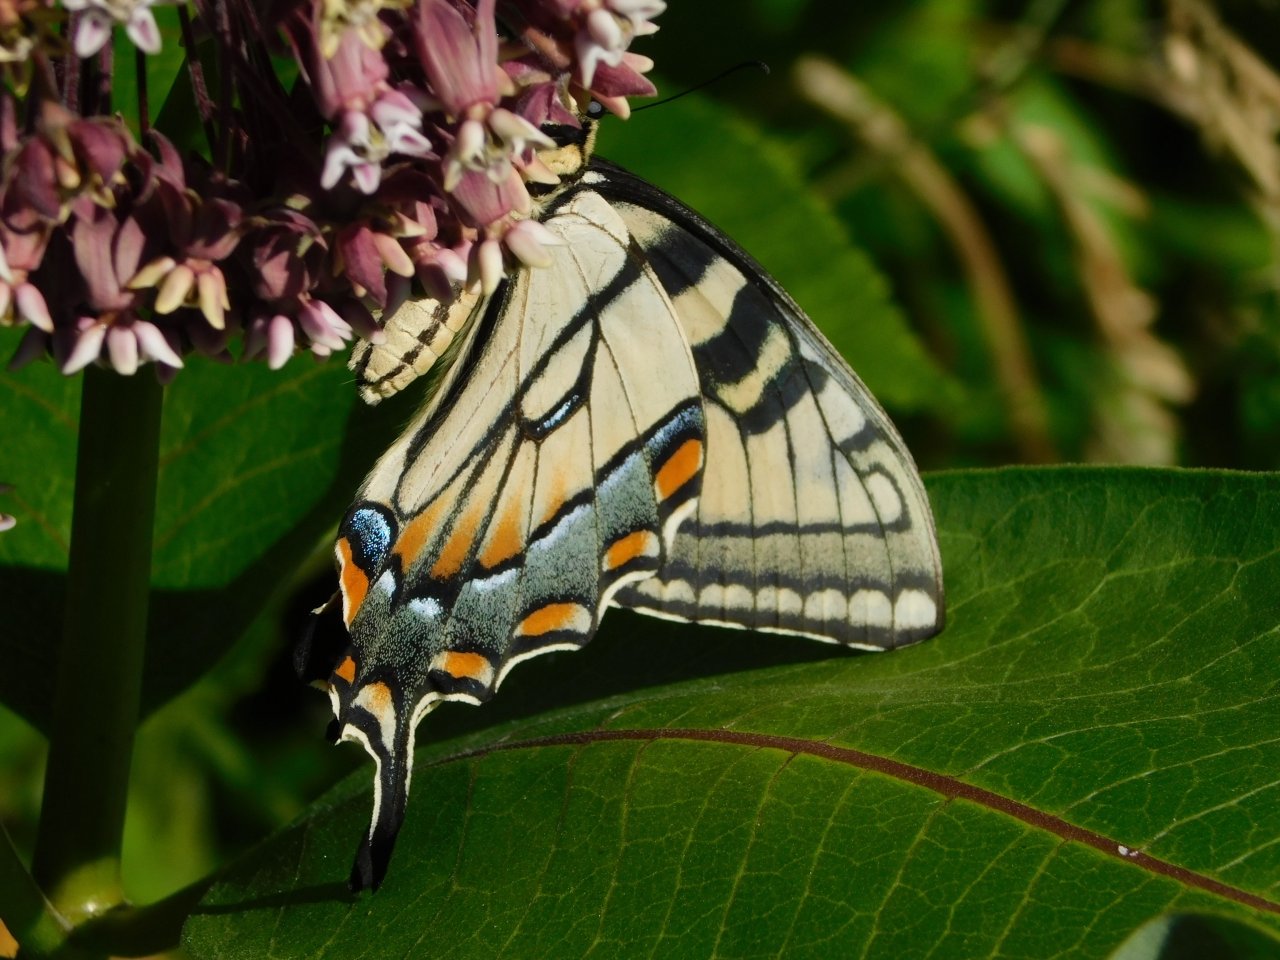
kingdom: Animalia
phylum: Arthropoda
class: Insecta
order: Lepidoptera
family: Papilionidae
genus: Pterourus
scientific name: Pterourus glaucus
